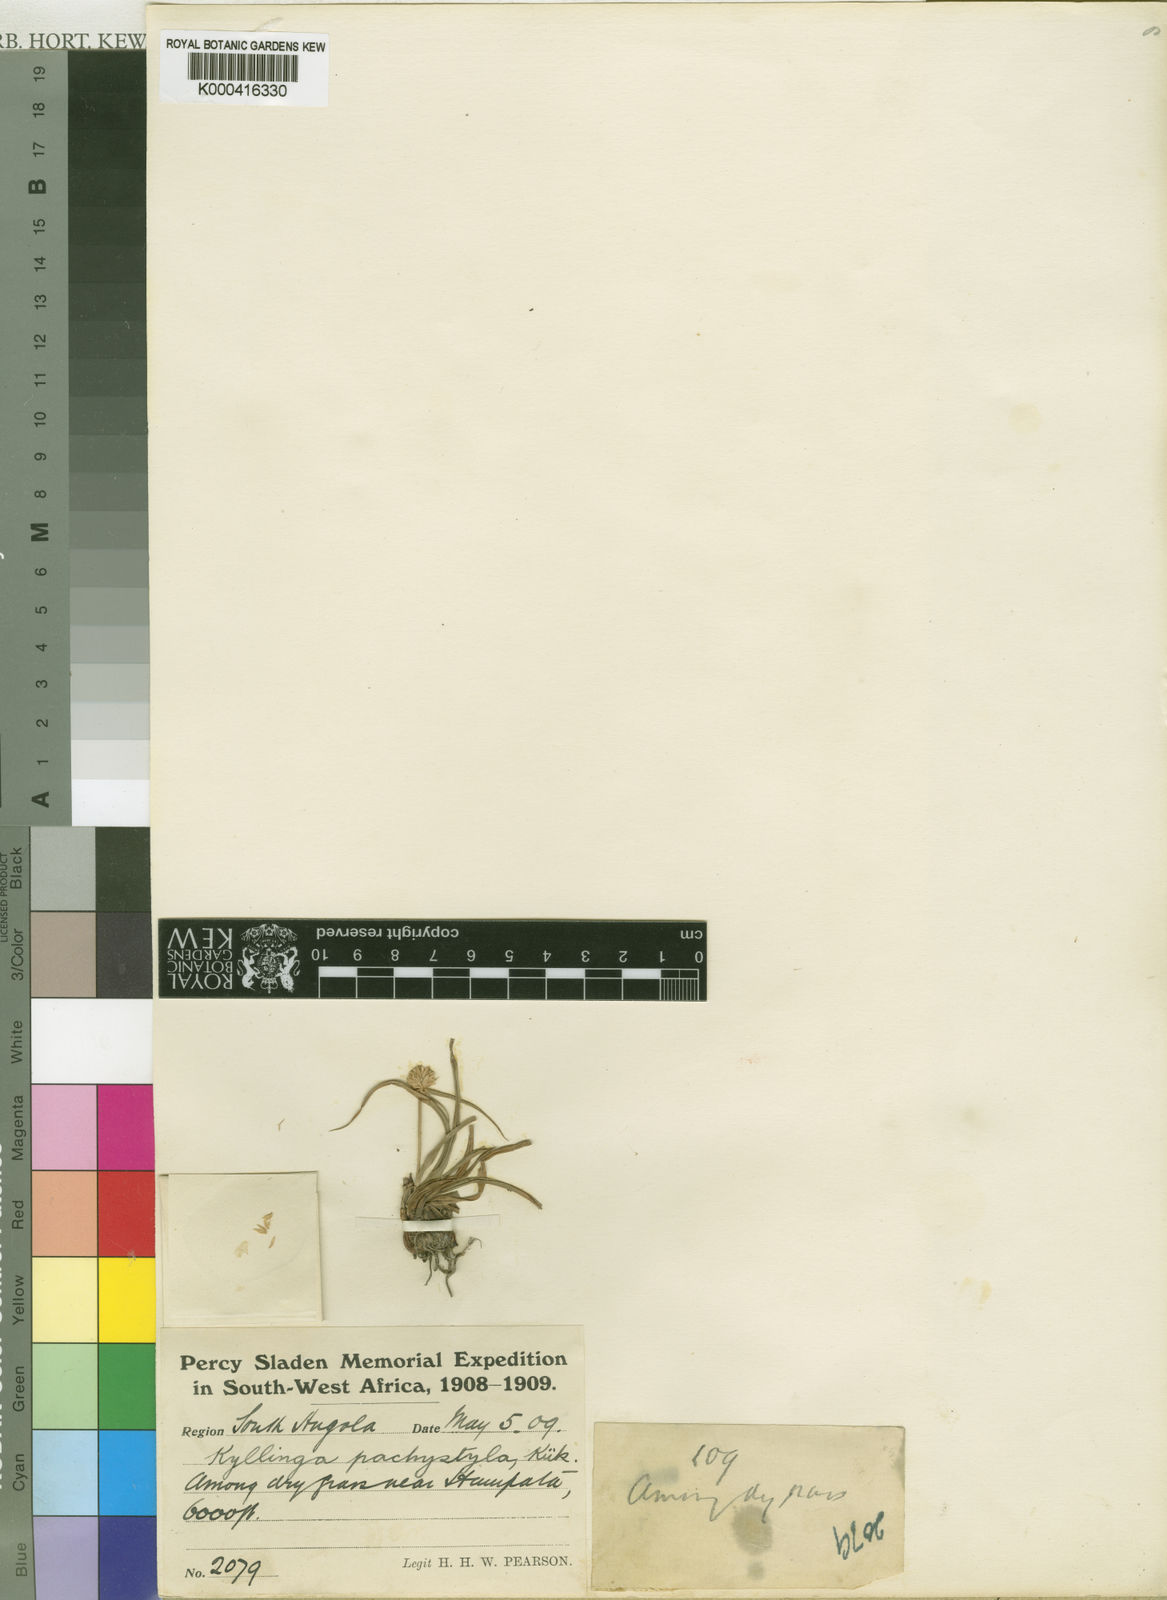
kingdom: Plantae
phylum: Tracheophyta
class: Liliopsida
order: Poales
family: Cyperaceae
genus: Cyperus
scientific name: Cyperus
